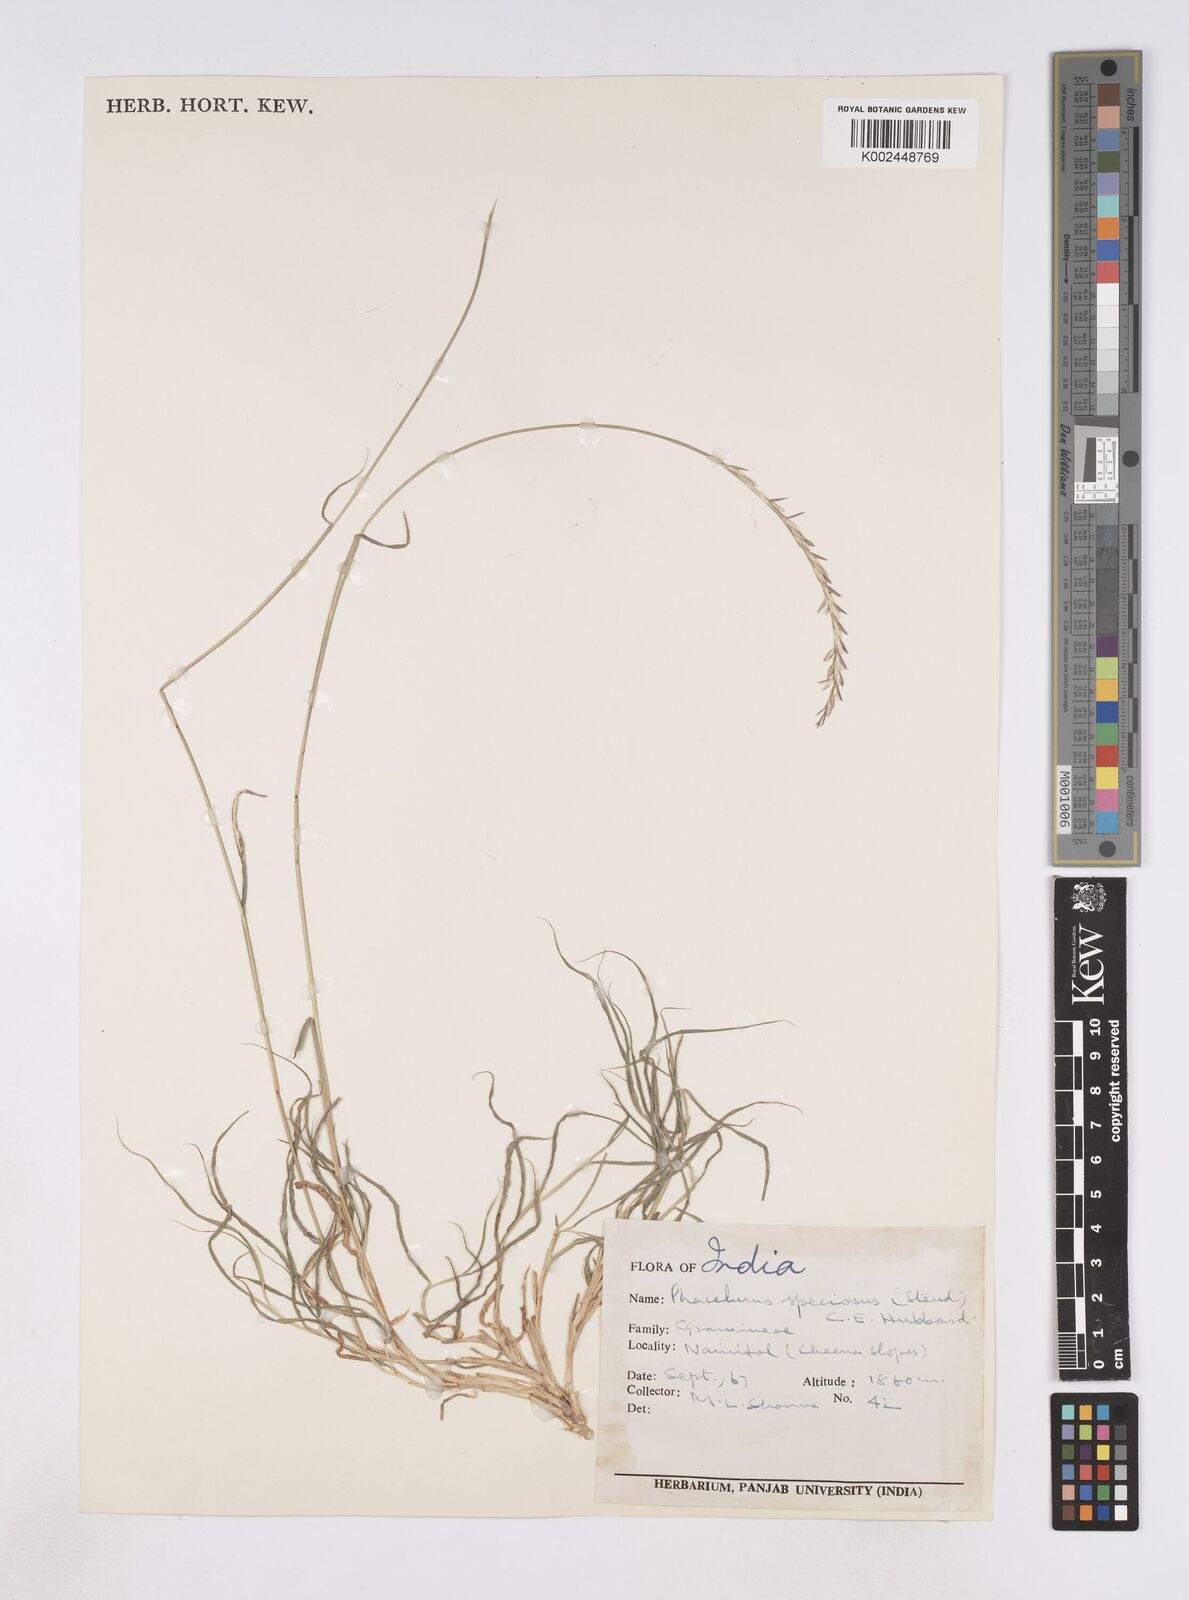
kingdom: Plantae
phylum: Tracheophyta
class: Liliopsida
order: Poales
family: Poaceae
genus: Phacelurus
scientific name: Phacelurus speciosus
